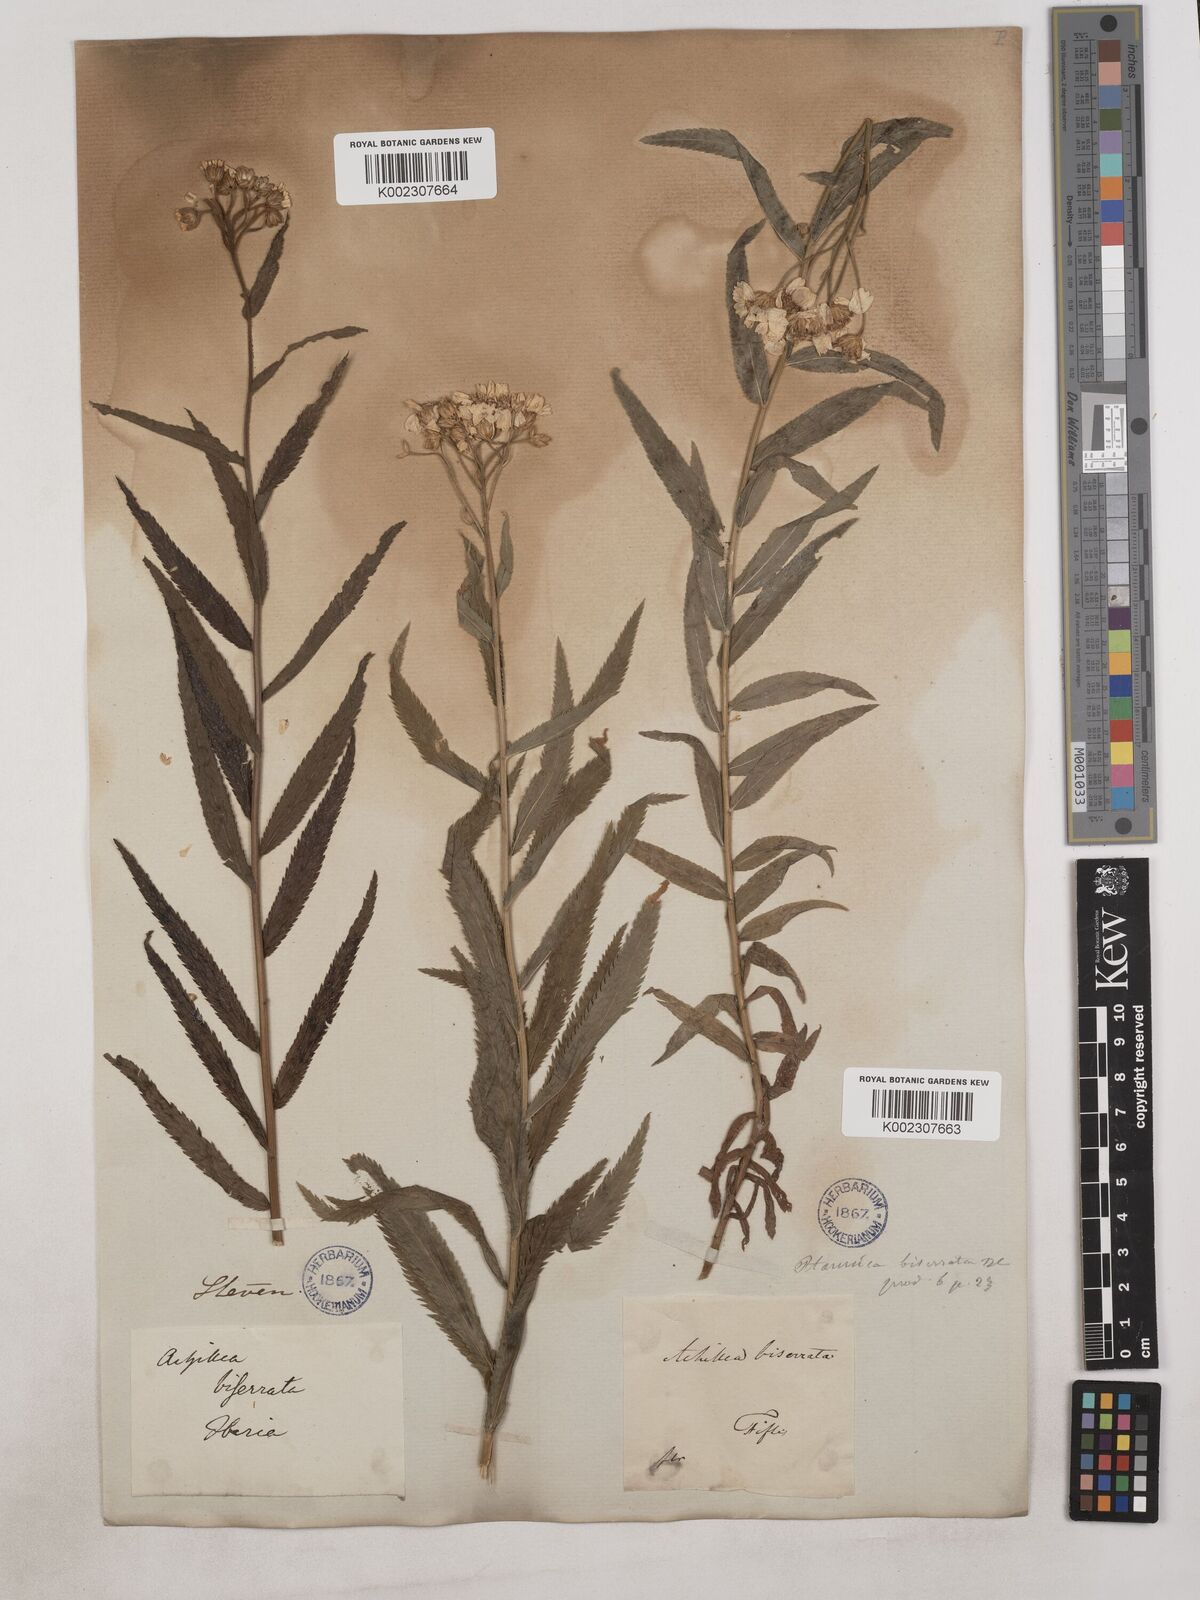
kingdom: Plantae
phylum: Tracheophyta
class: Magnoliopsida
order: Asterales
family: Asteraceae
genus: Achillea
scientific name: Achillea biserrata
